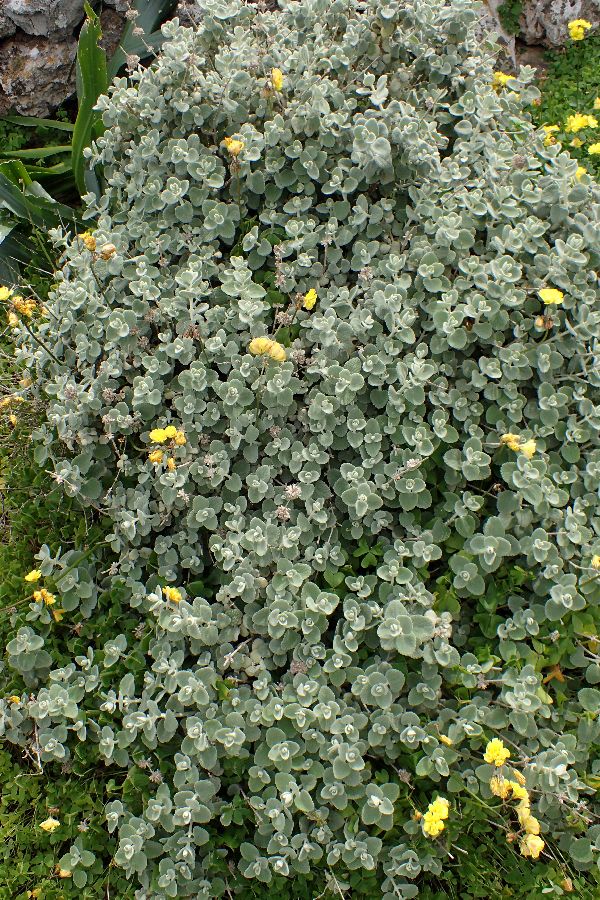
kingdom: Plantae
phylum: Tracheophyta
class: Magnoliopsida
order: Lamiales
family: Lamiaceae
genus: Pseudodictamnus
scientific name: Pseudodictamnus mediterraneus
